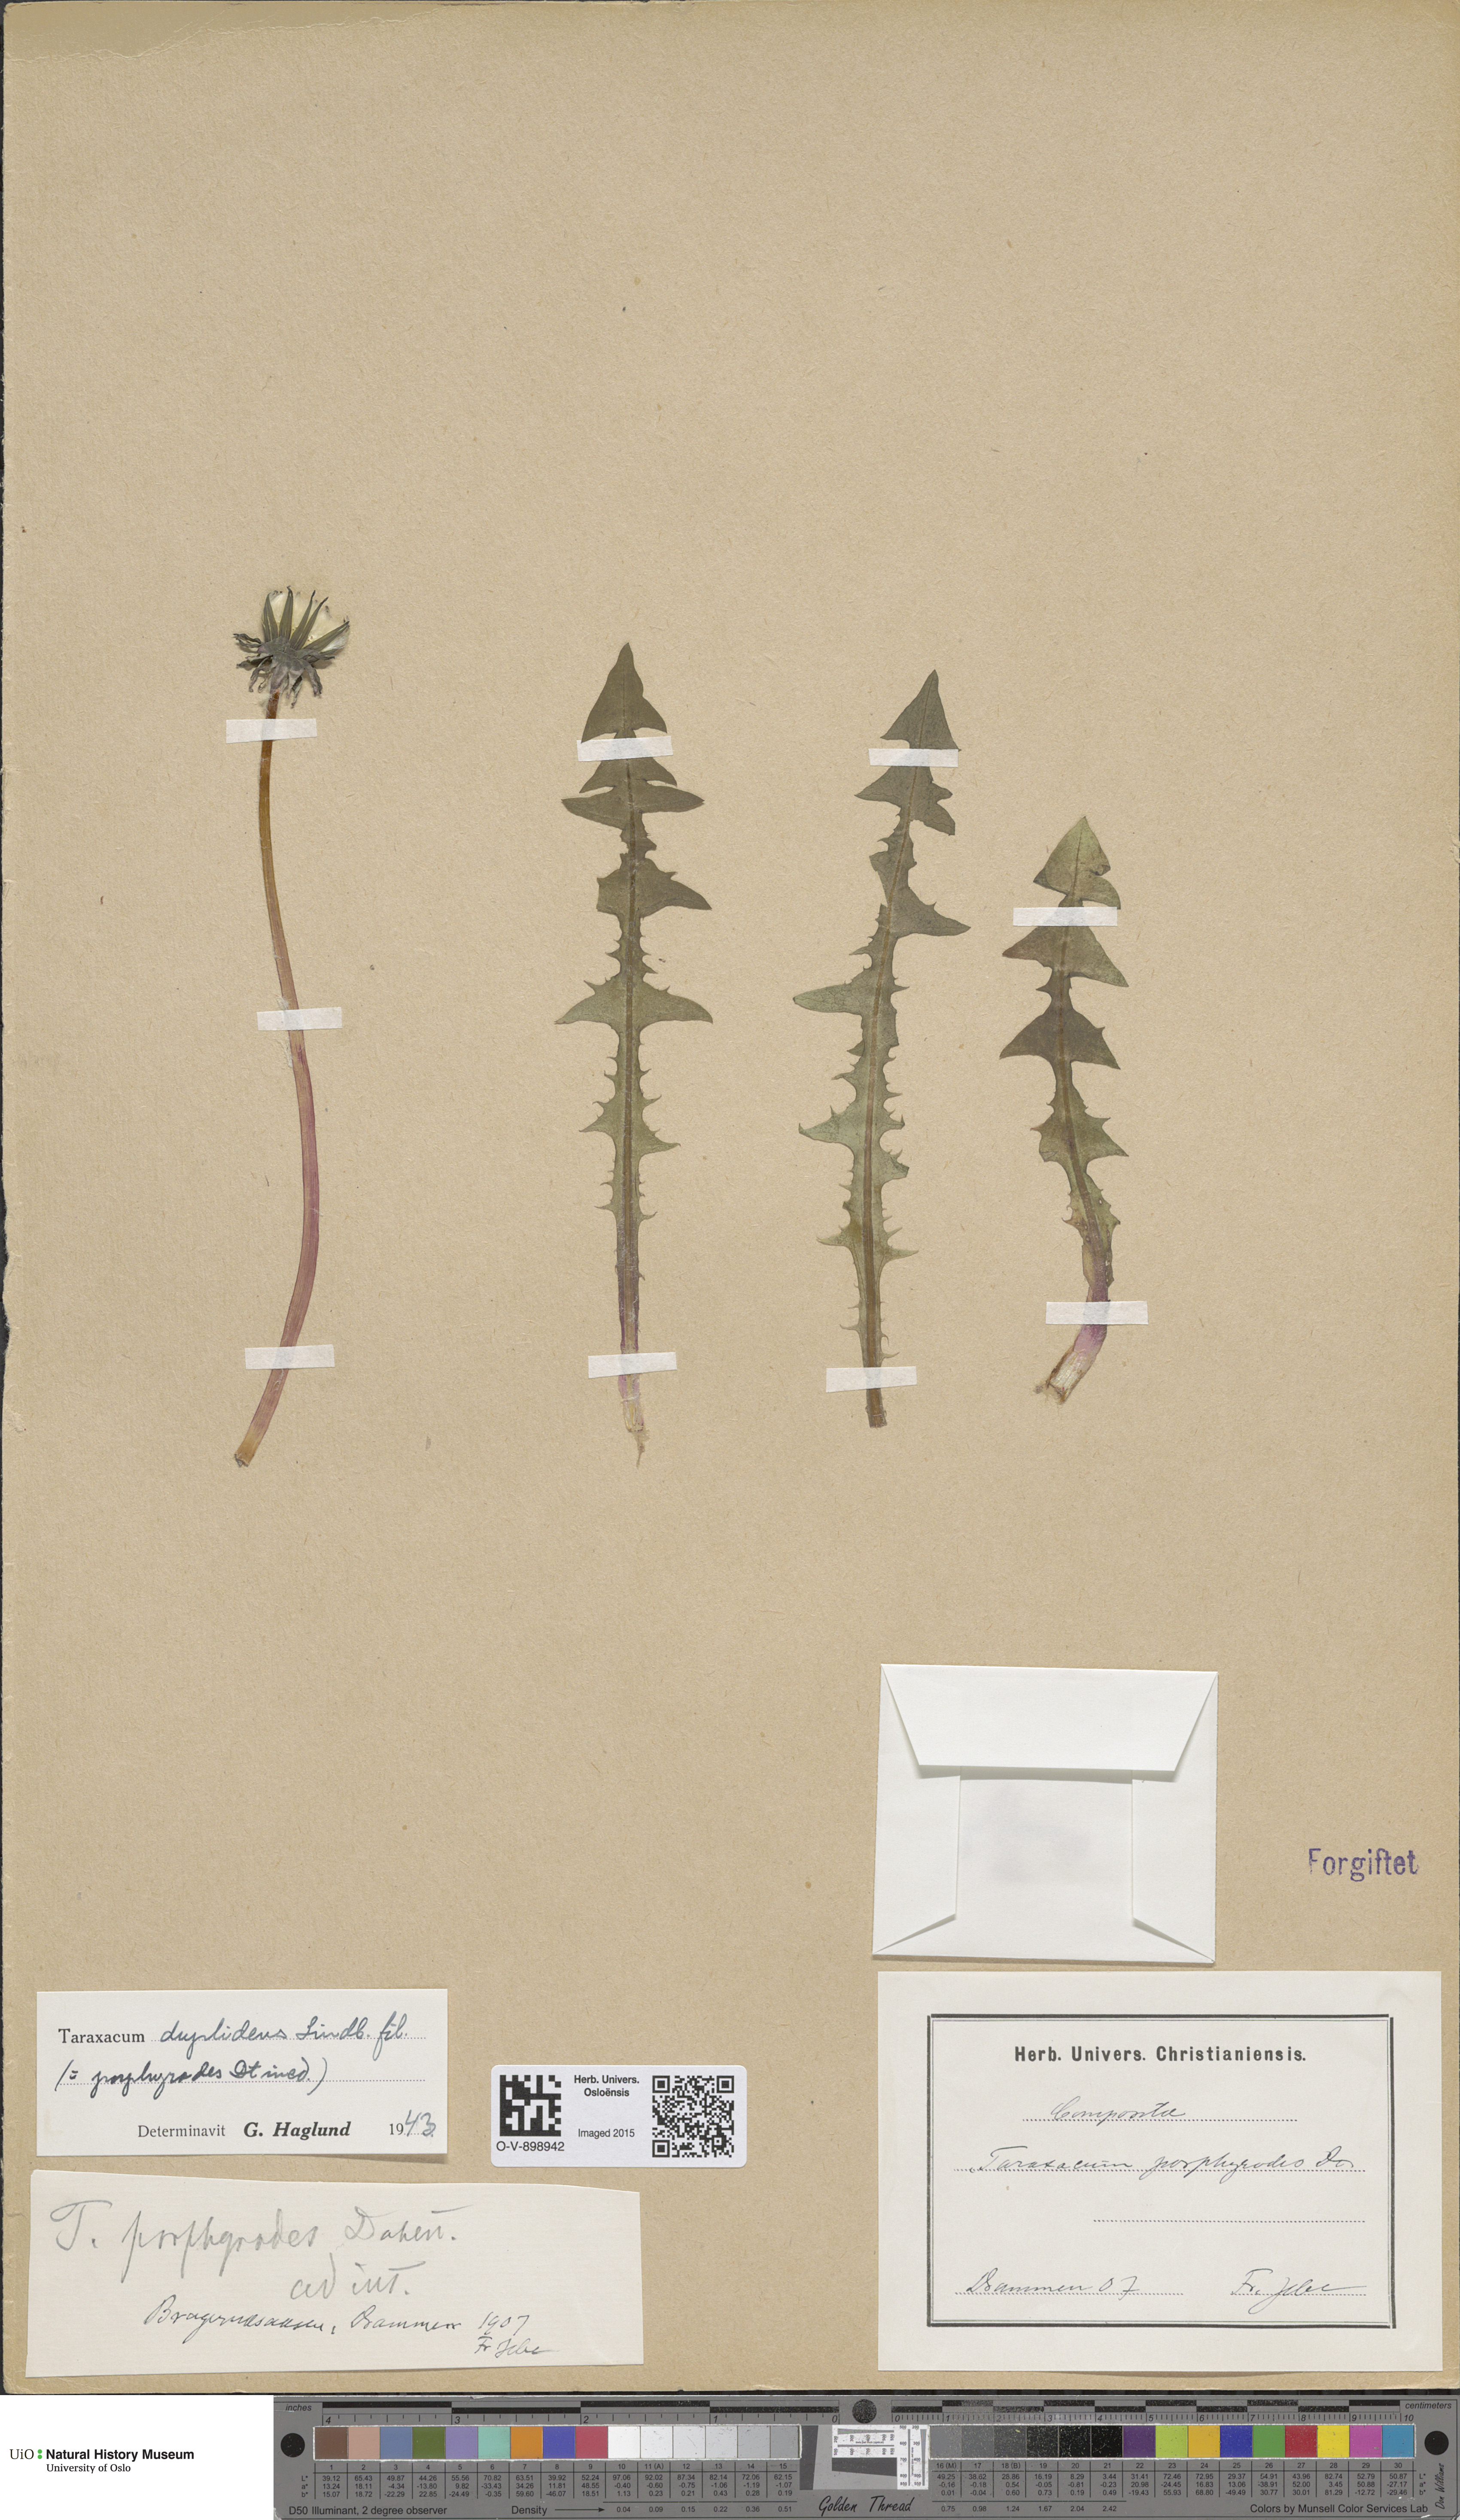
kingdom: Plantae
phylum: Tracheophyta
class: Magnoliopsida
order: Asterales
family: Asteraceae
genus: Taraxacum
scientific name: Taraxacum ostenfeldii
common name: Ostenfeld's dandelion
